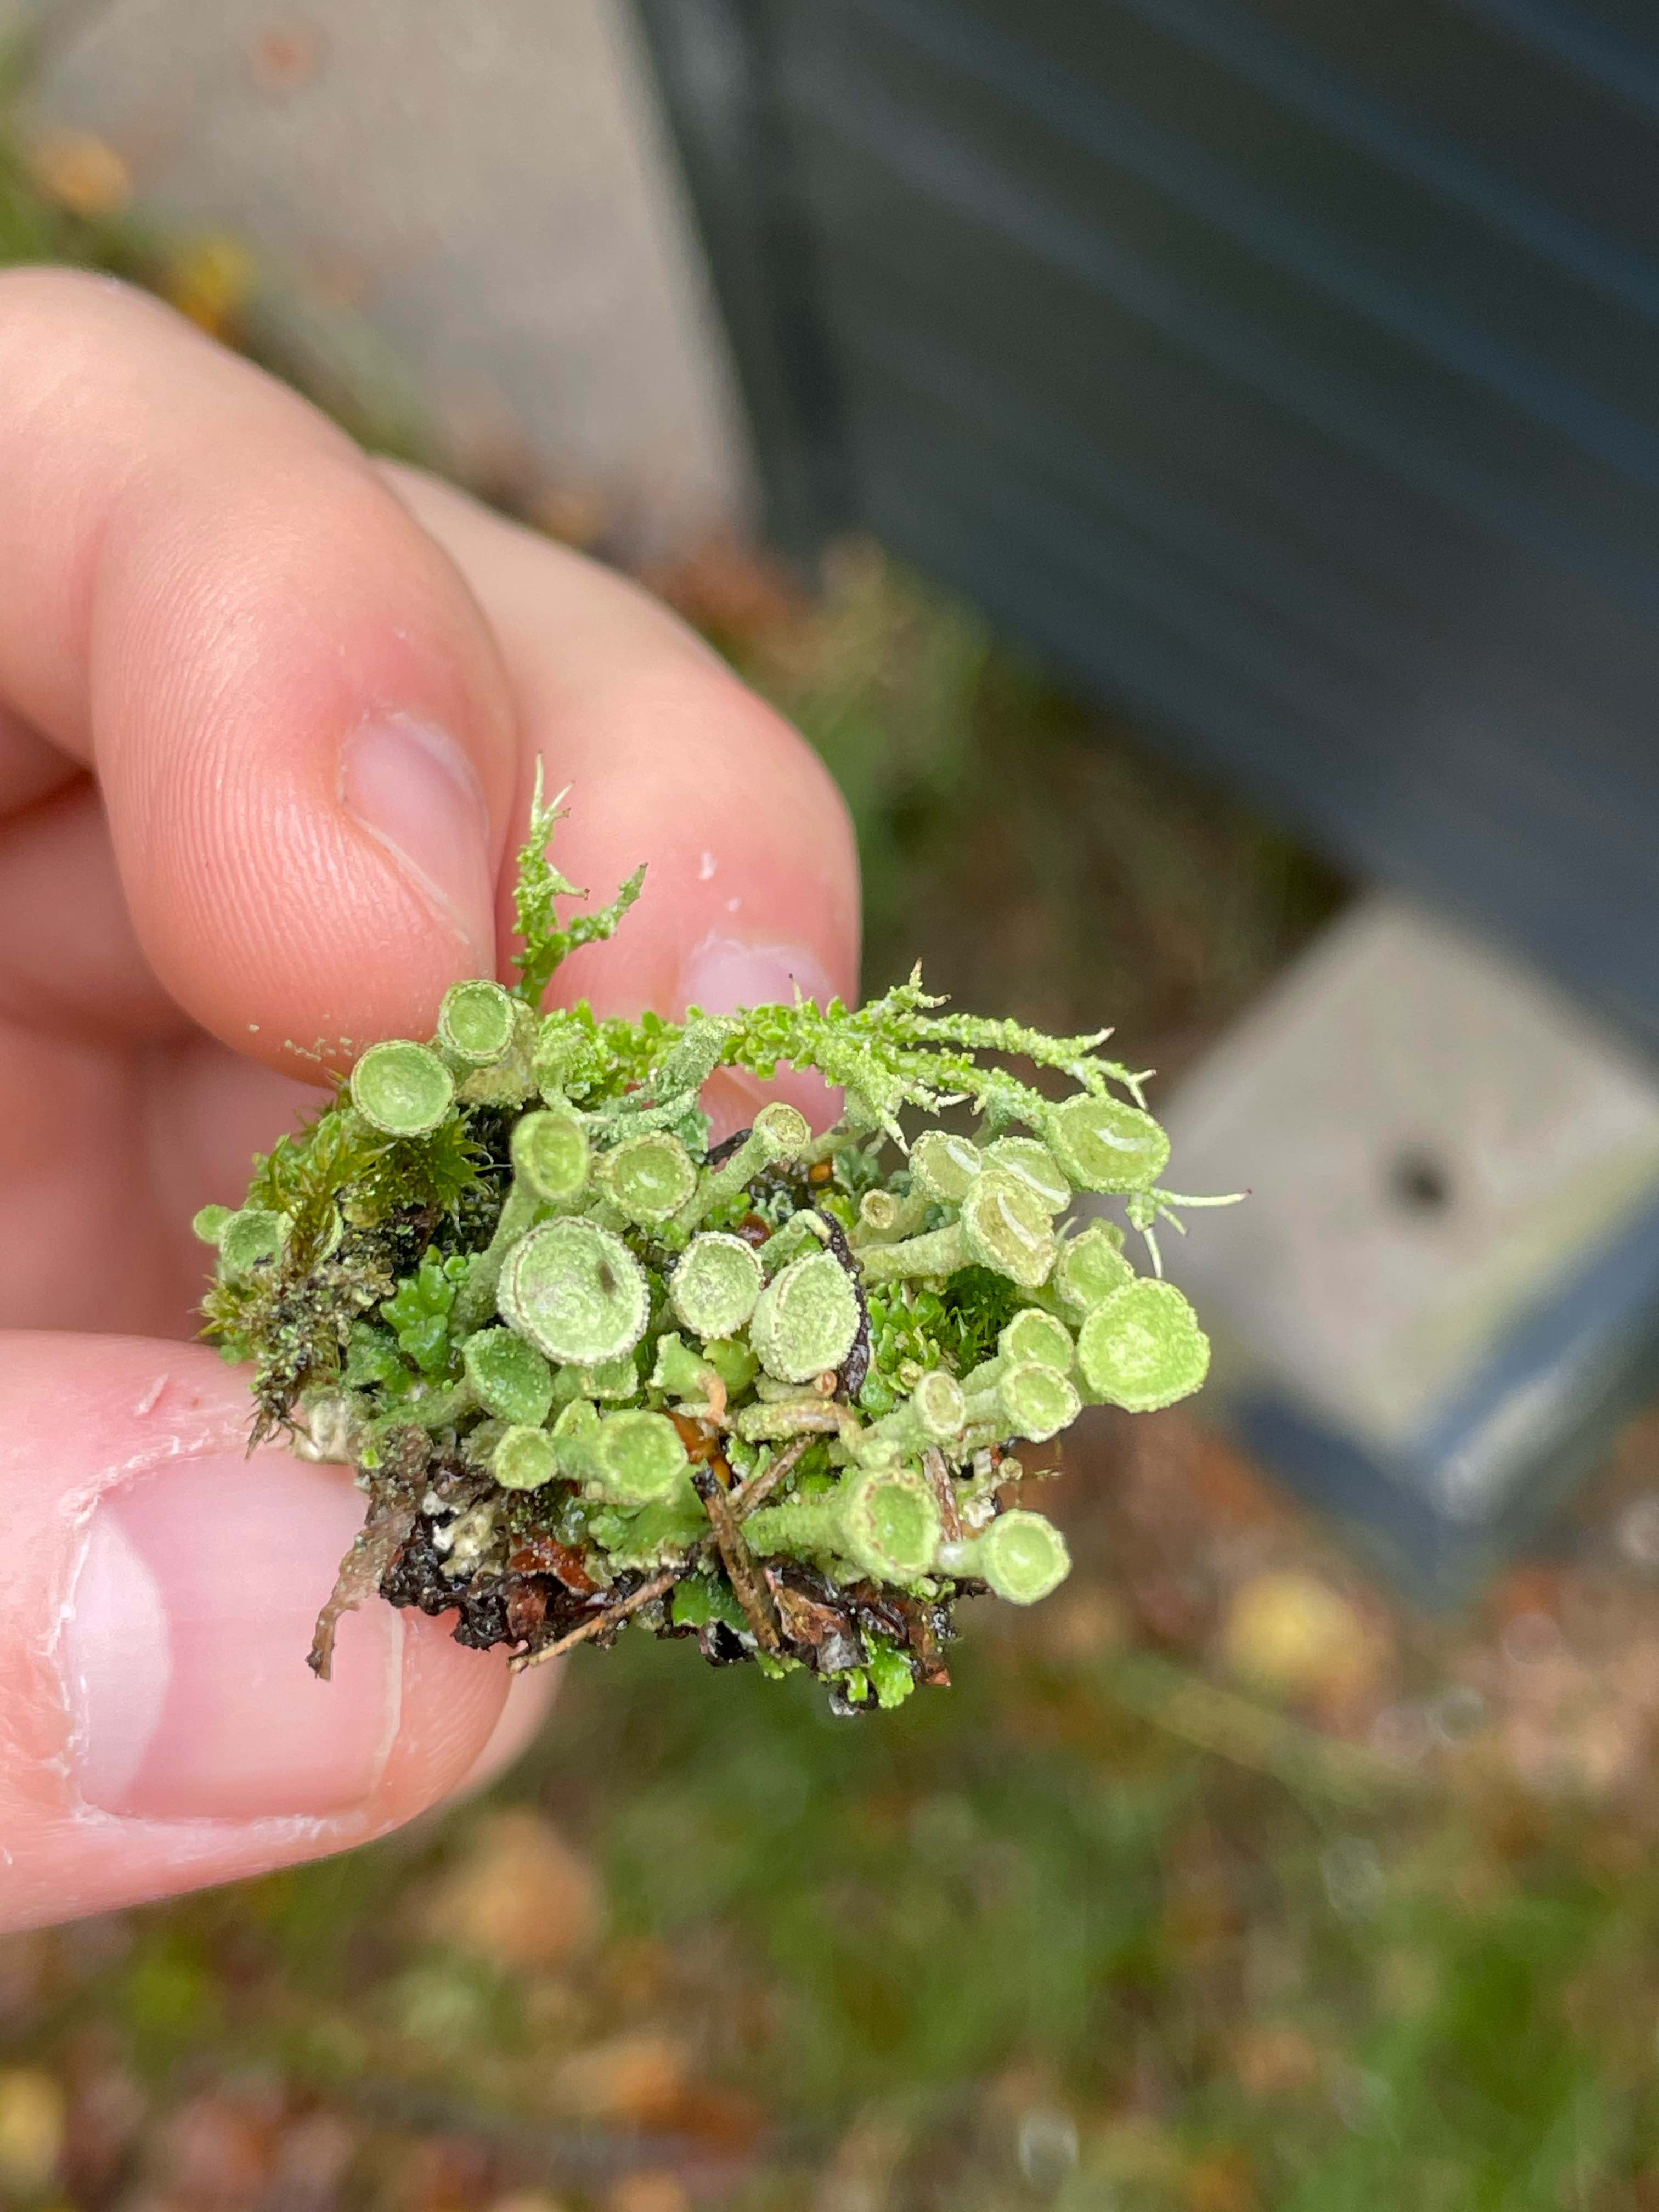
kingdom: Fungi
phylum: Ascomycota
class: Lecanoromycetes
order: Lecanorales
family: Cladoniaceae
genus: Cladonia
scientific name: Cladonia
